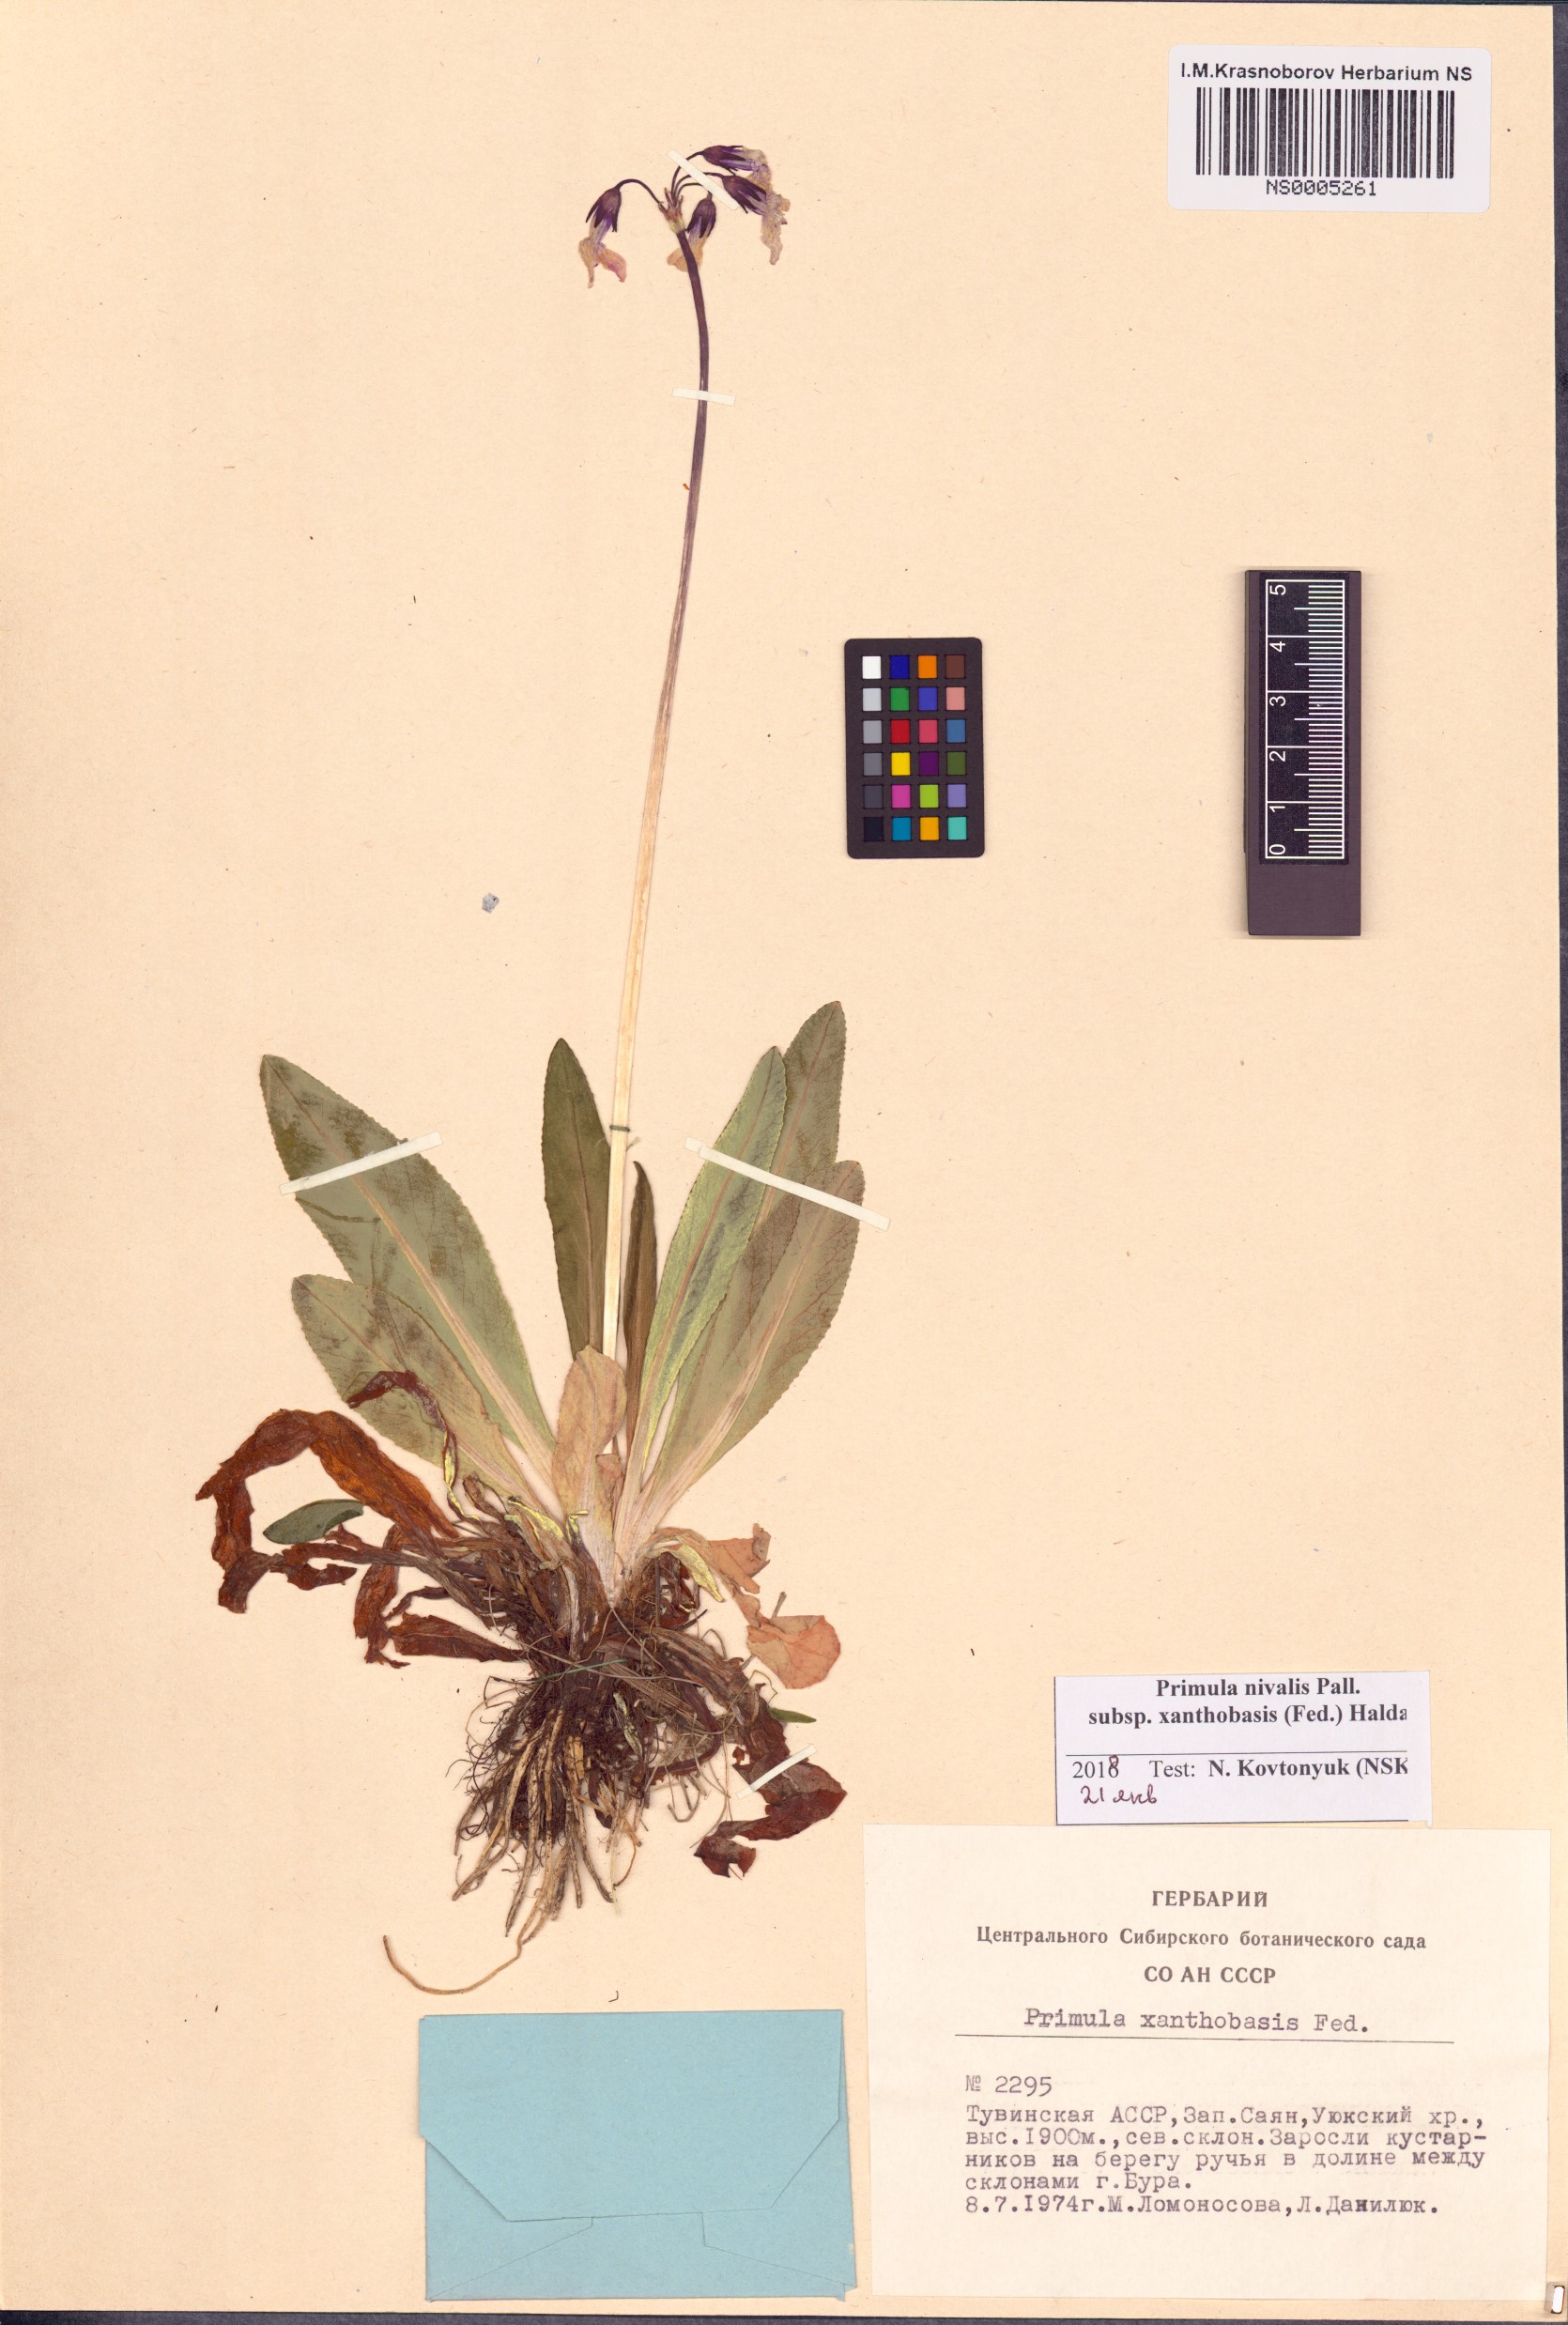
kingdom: Plantae
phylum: Tracheophyta
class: Magnoliopsida
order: Ericales
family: Primulaceae
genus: Primula
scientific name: Primula nivalis
